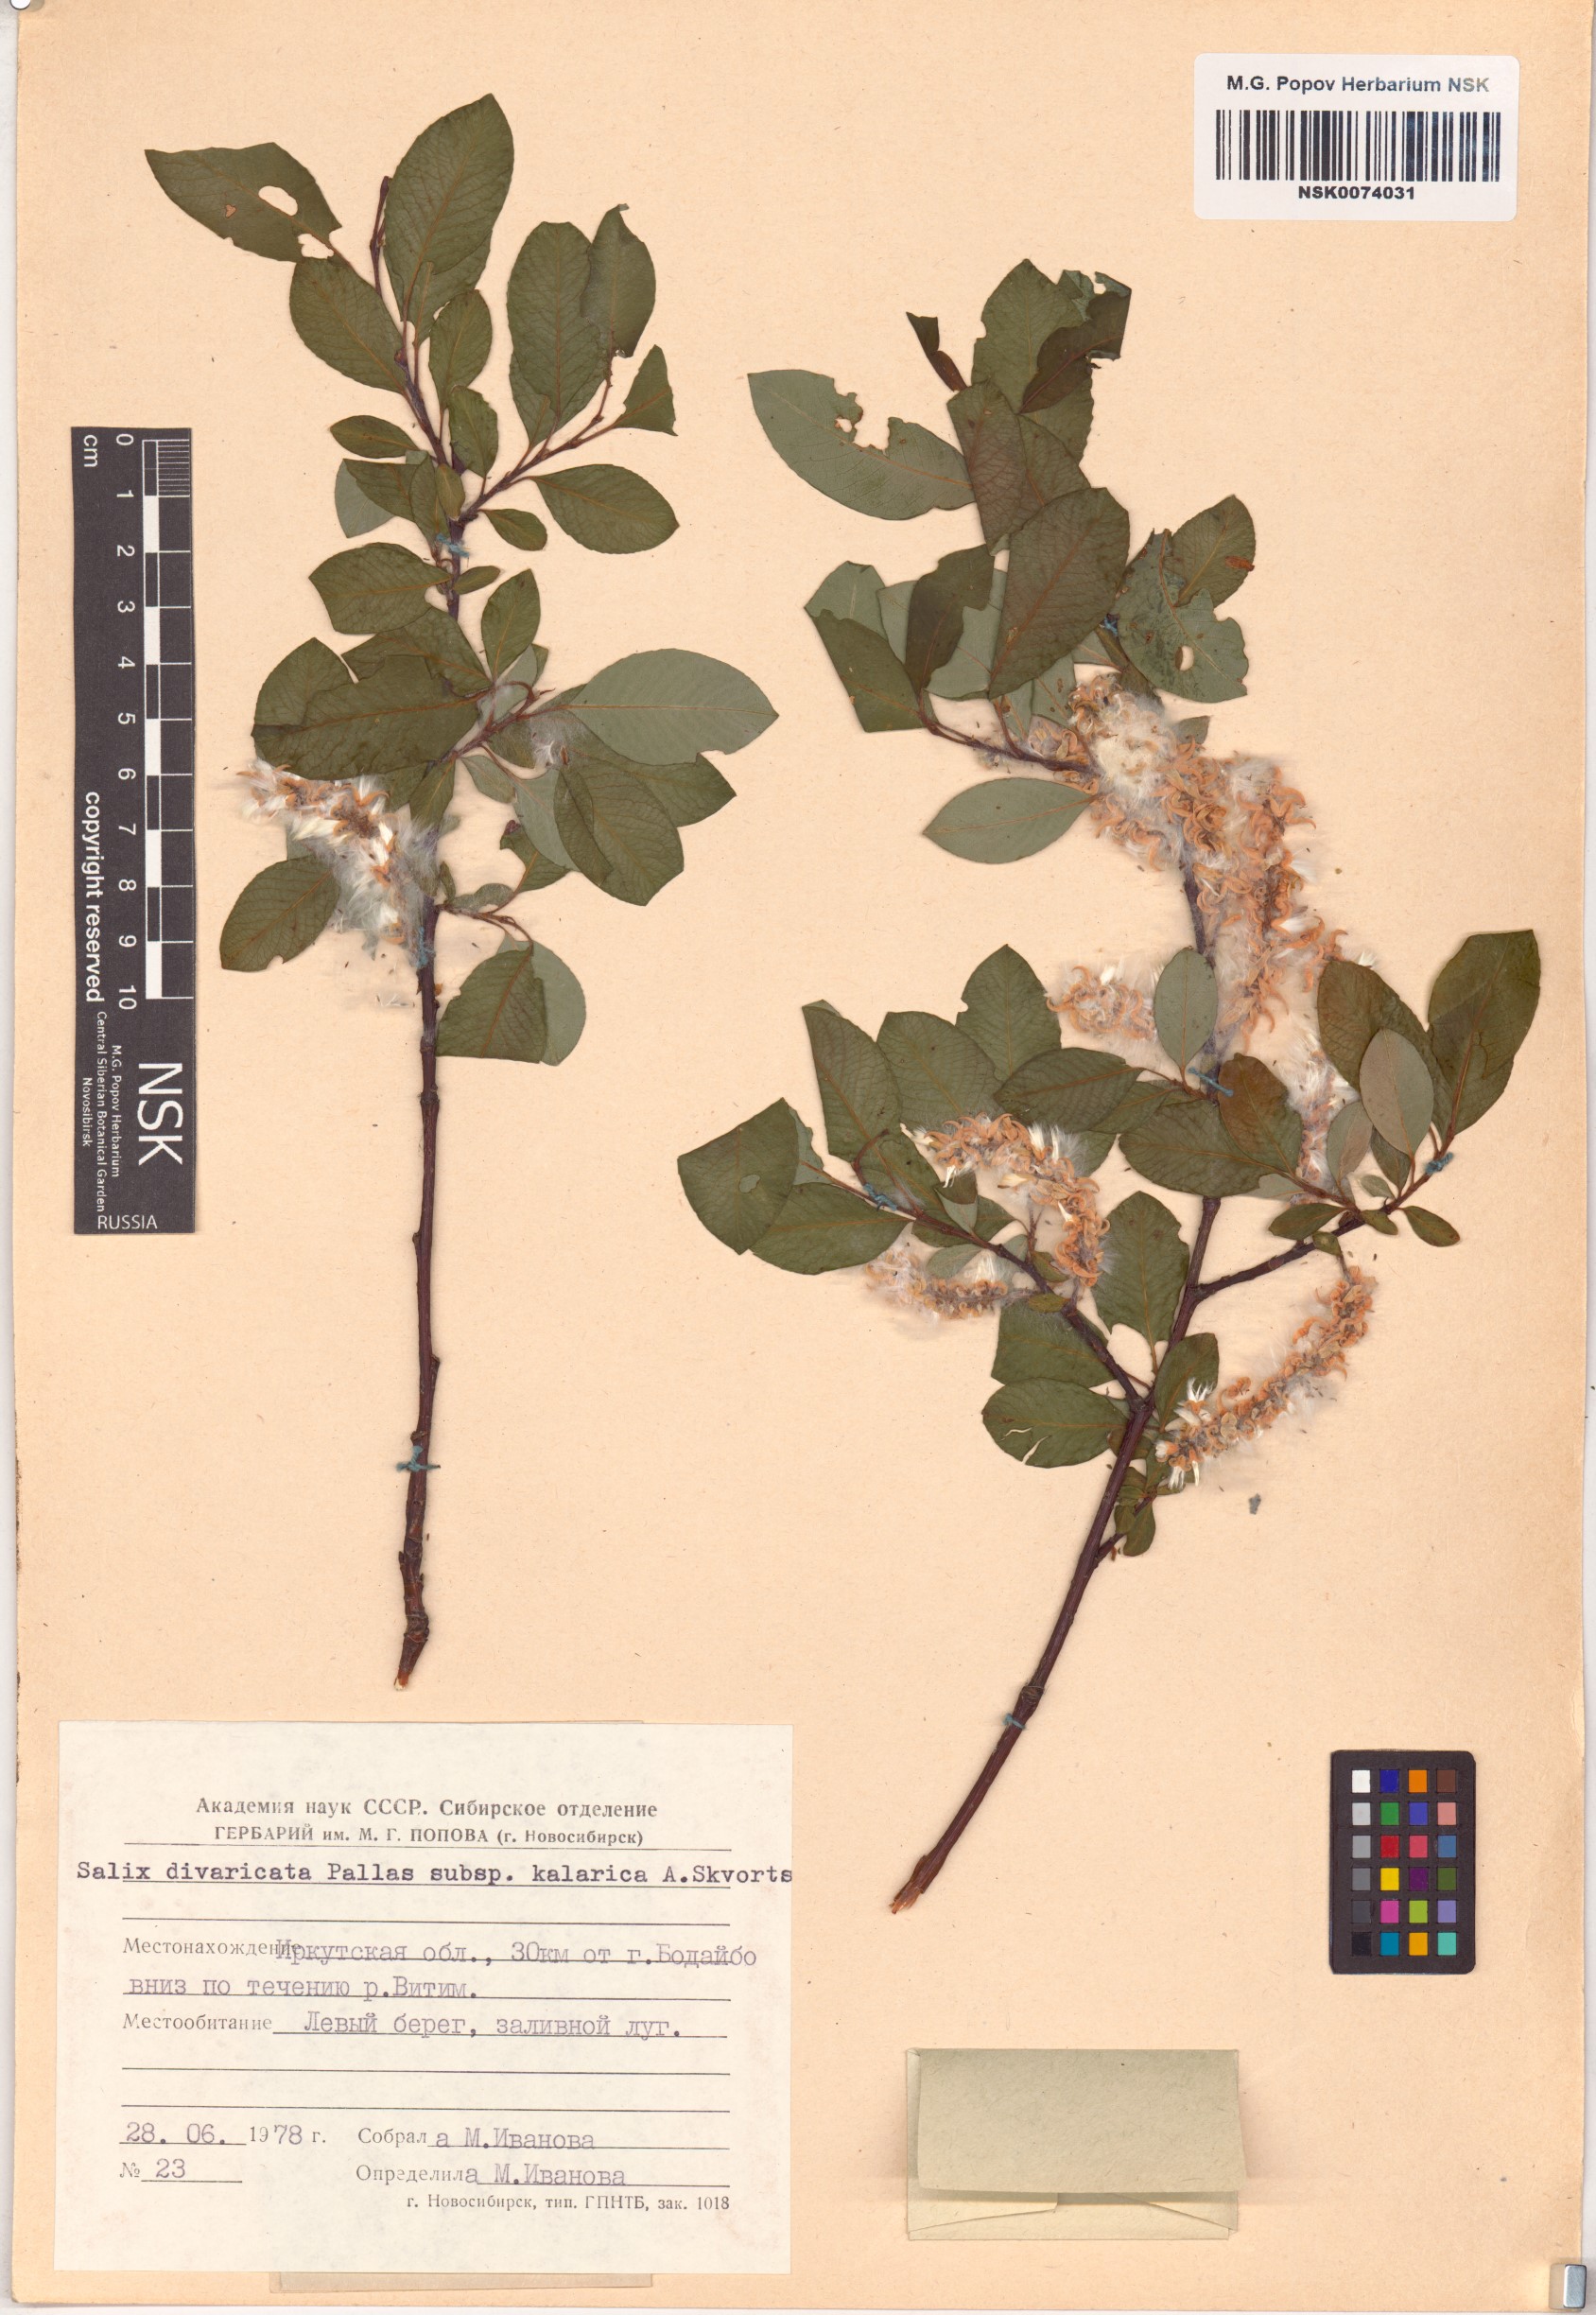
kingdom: Plantae
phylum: Tracheophyta
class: Magnoliopsida
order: Malpighiales
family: Salicaceae
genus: Salix
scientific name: Salix kalarica
